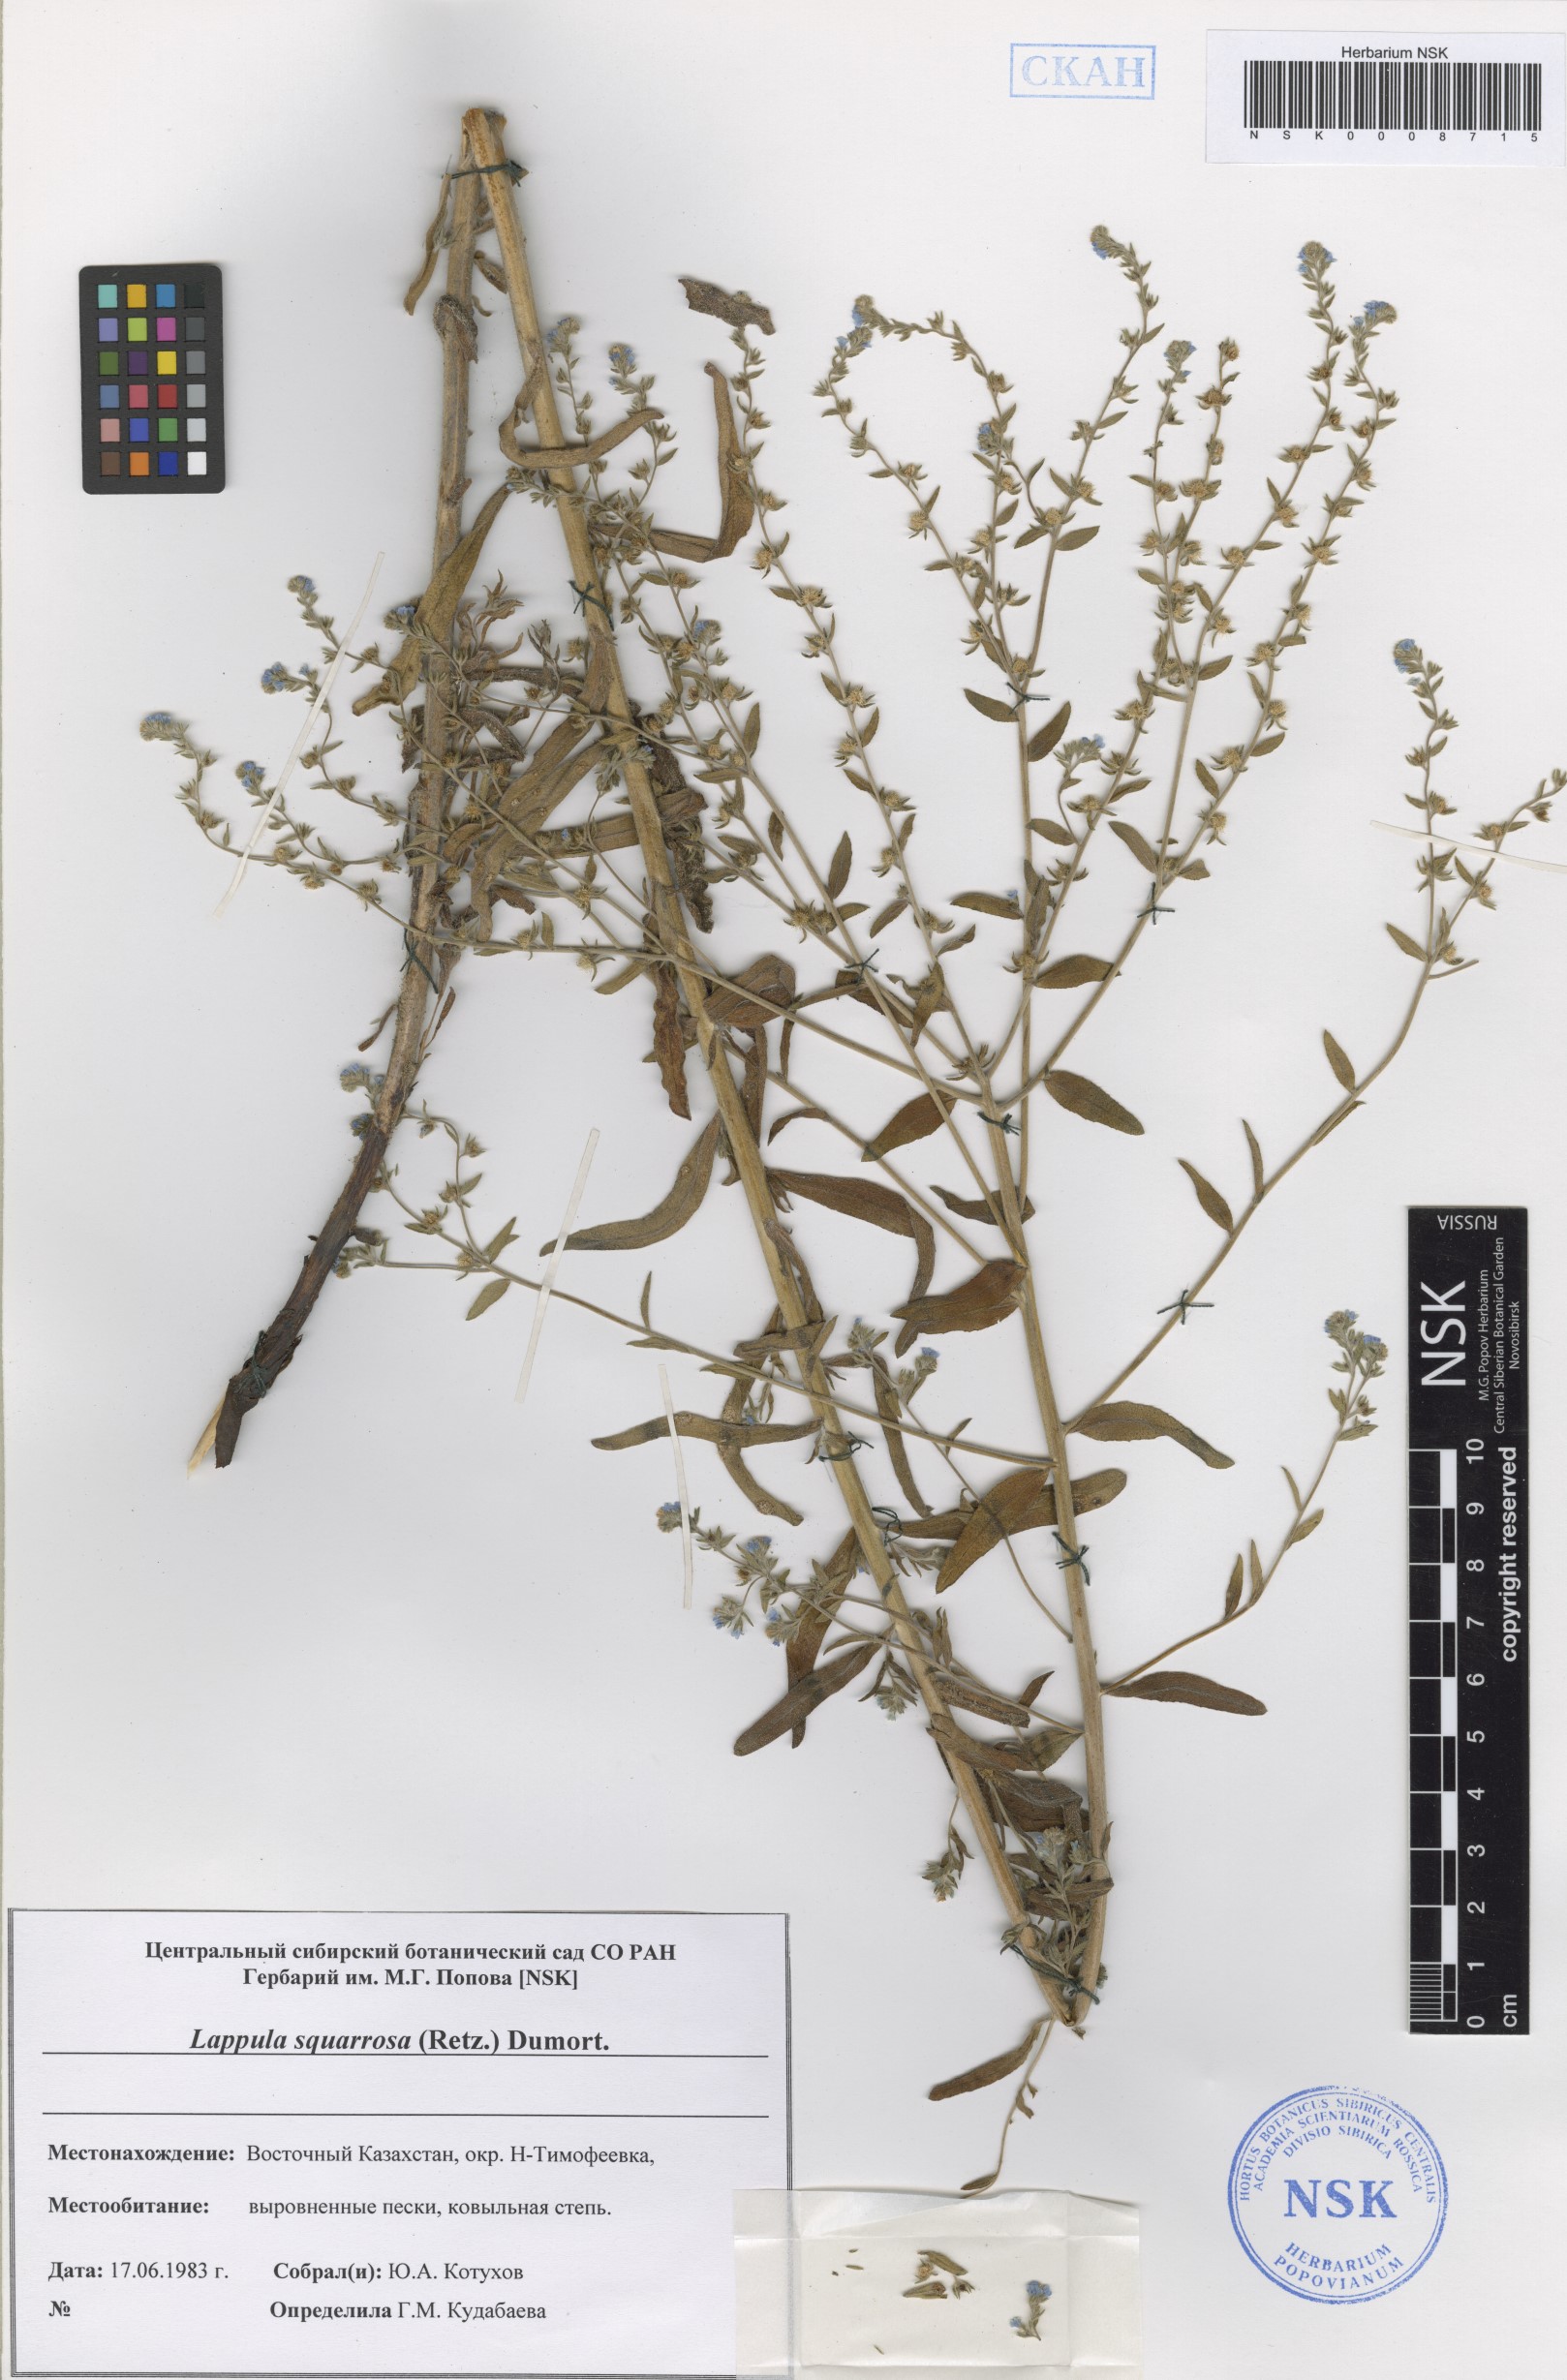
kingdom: Plantae
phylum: Tracheophyta
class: Magnoliopsida
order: Boraginales
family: Boraginaceae
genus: Lappula
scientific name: Lappula squarrosa
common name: European stickseed
